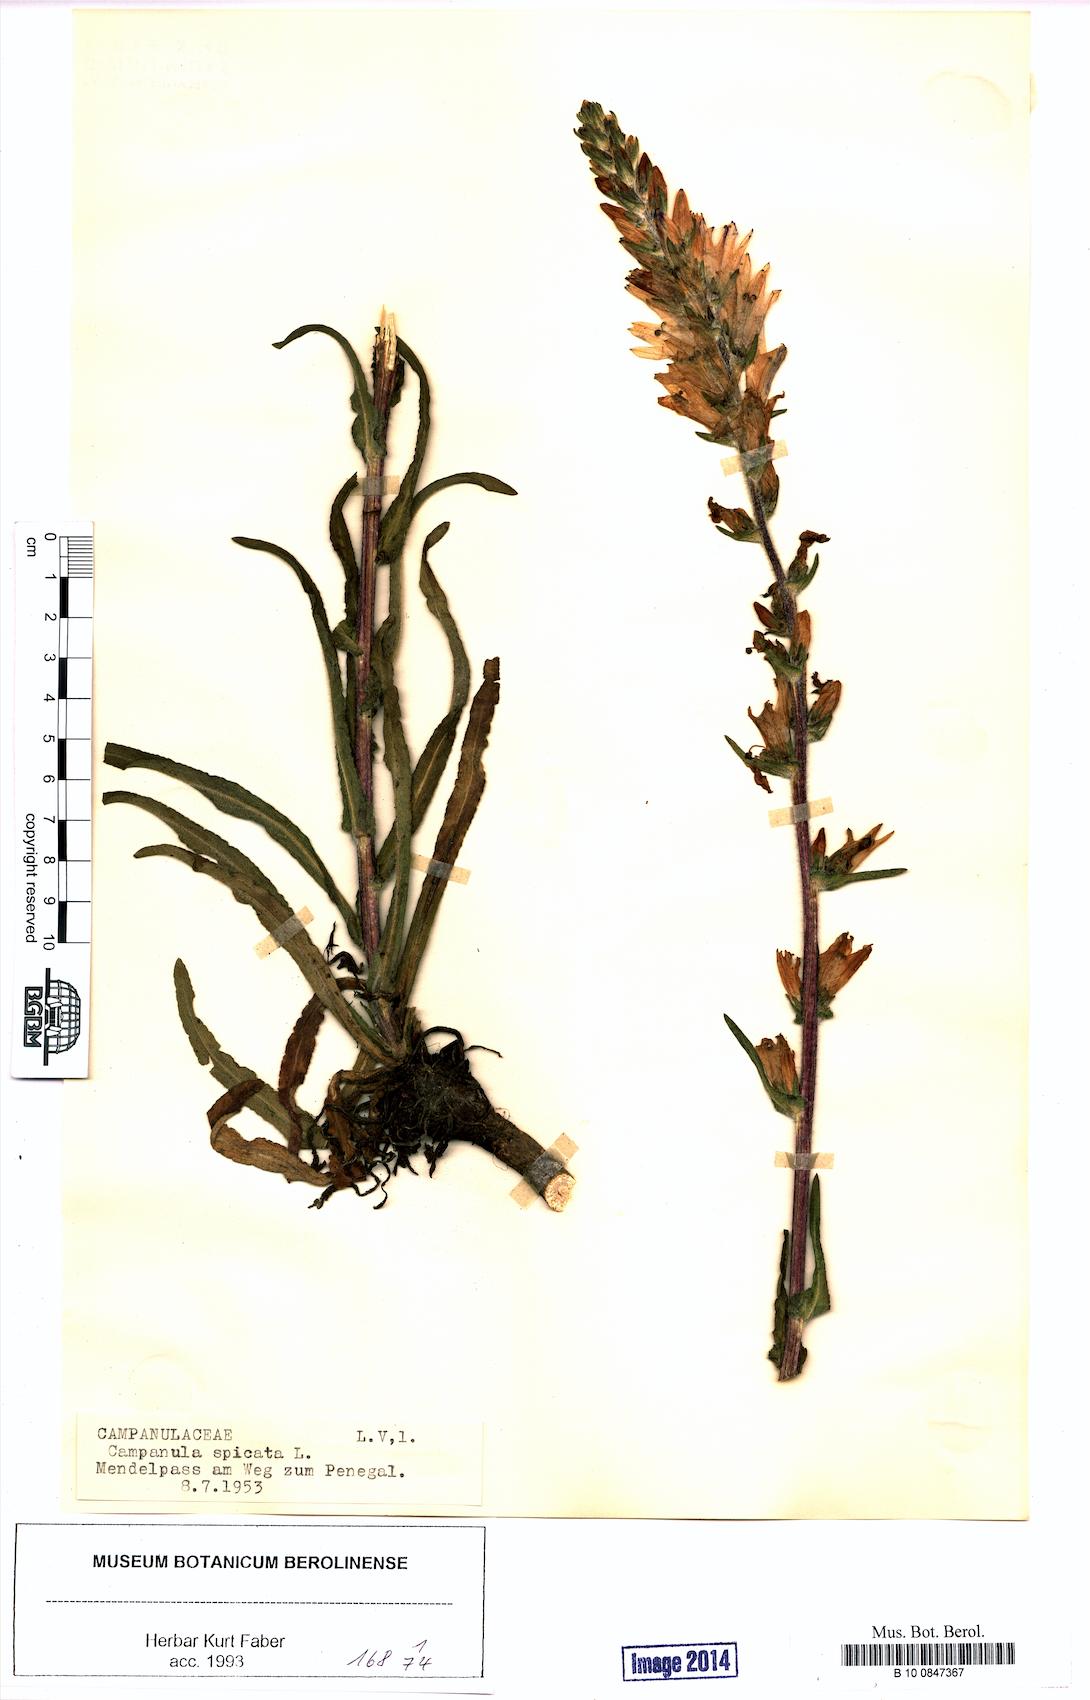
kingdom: Plantae
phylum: Tracheophyta
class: Magnoliopsida
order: Asterales
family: Campanulaceae
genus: Campanula
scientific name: Campanula spicata
